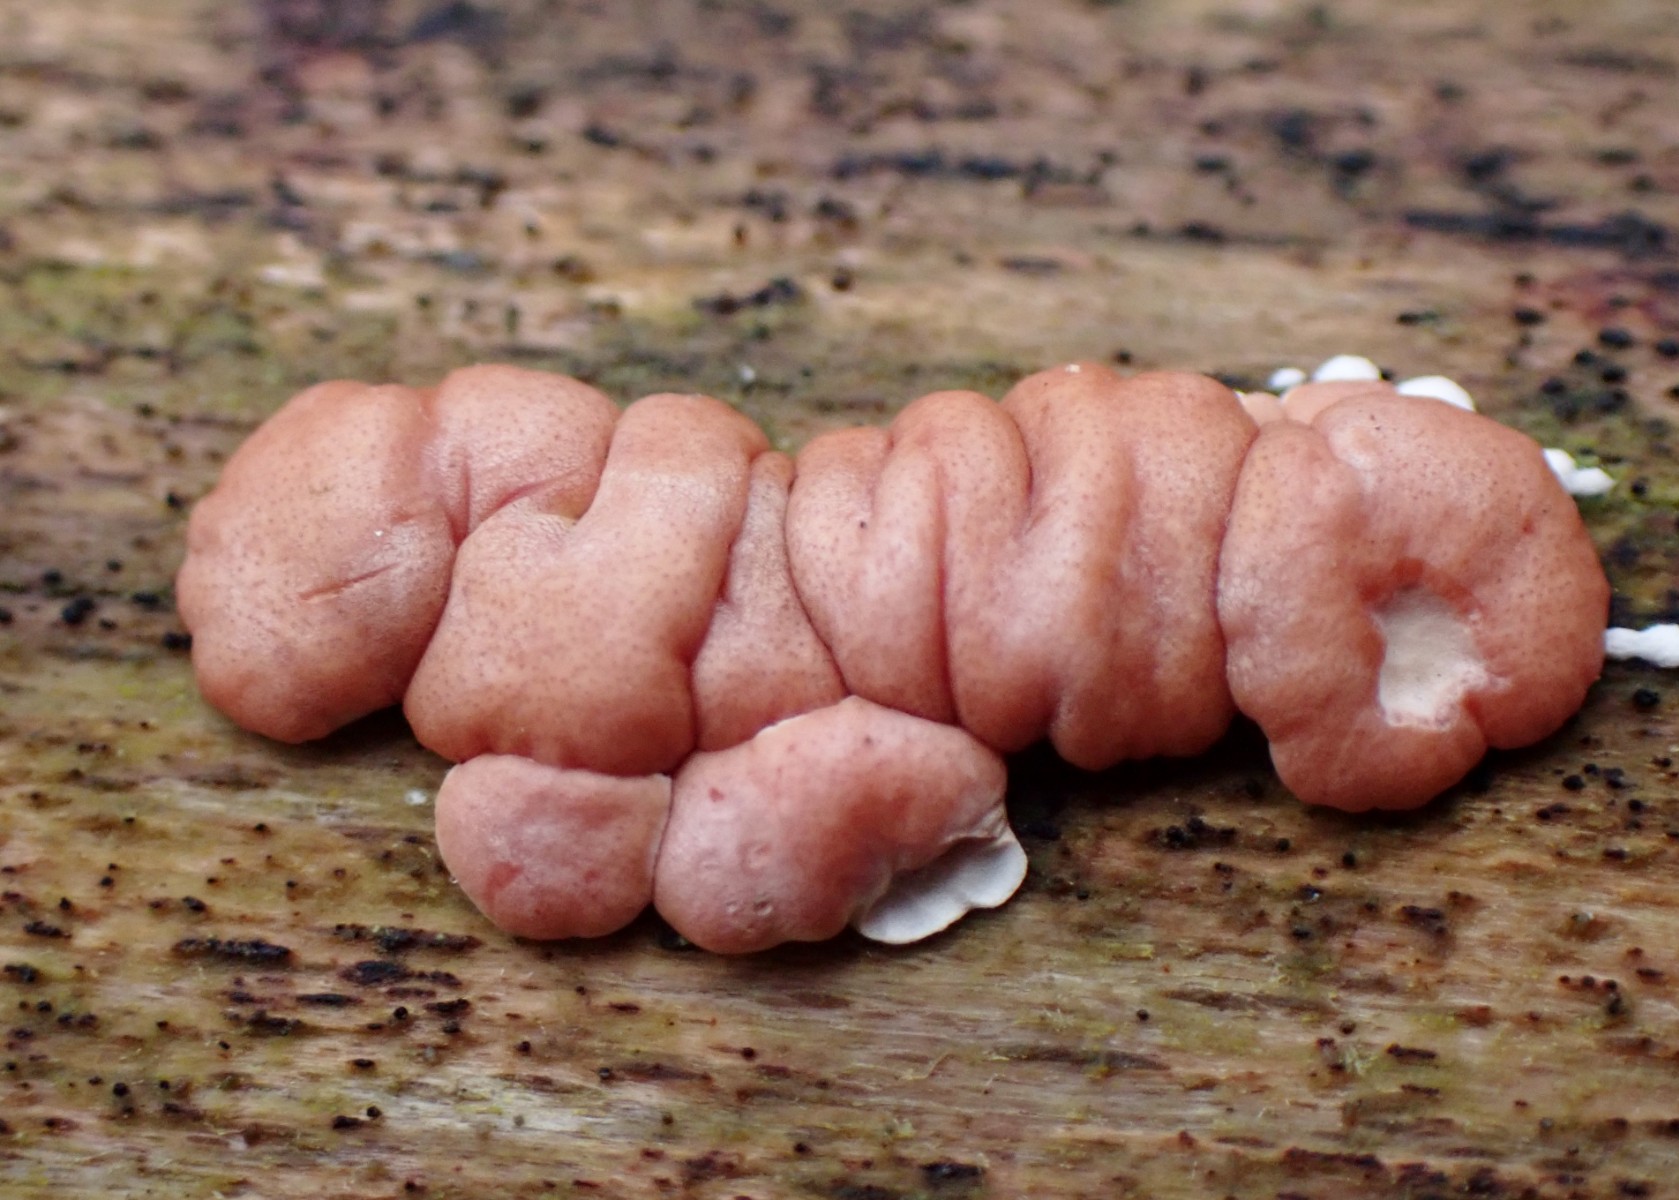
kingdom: Fungi
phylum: Ascomycota
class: Sordariomycetes
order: Hypocreales
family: Hypocreaceae
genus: Trichoderma
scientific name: Trichoderma europaeum
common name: rosabrun kødkerne
